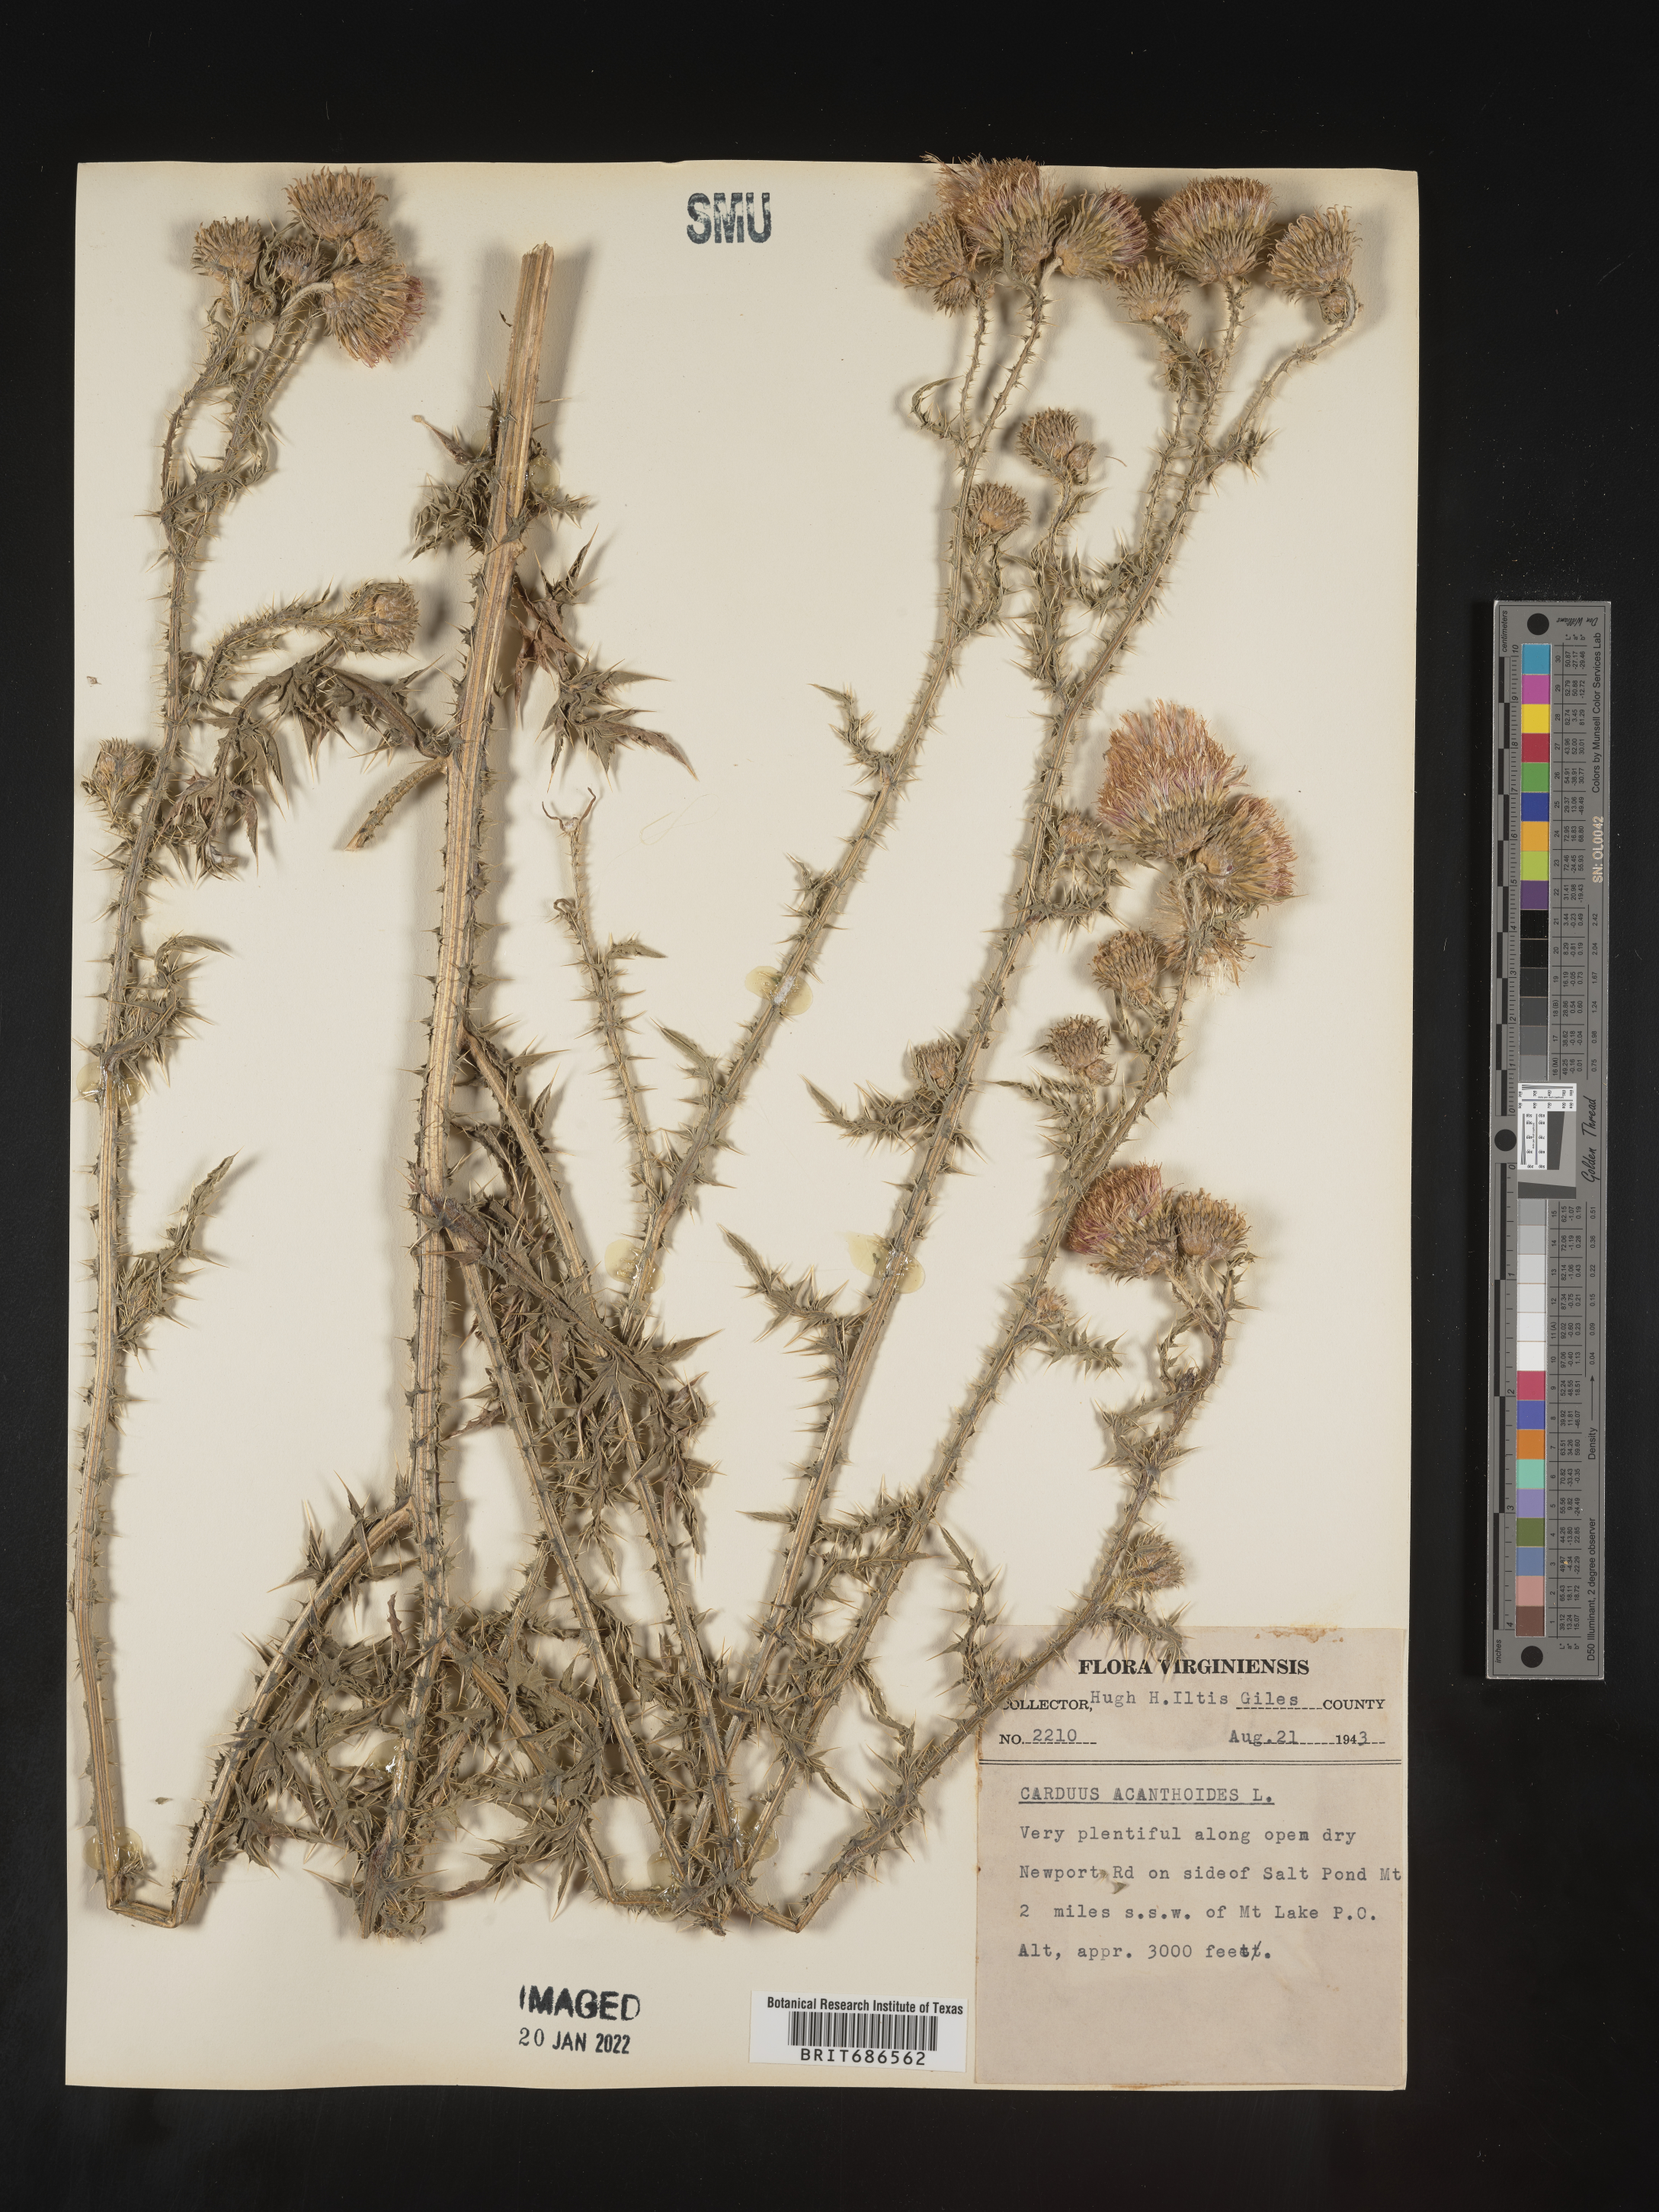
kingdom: Plantae
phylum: Tracheophyta
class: Magnoliopsida
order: Asterales
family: Asteraceae
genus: Carduus
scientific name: Carduus acanthoides
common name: Plumeless thistle
